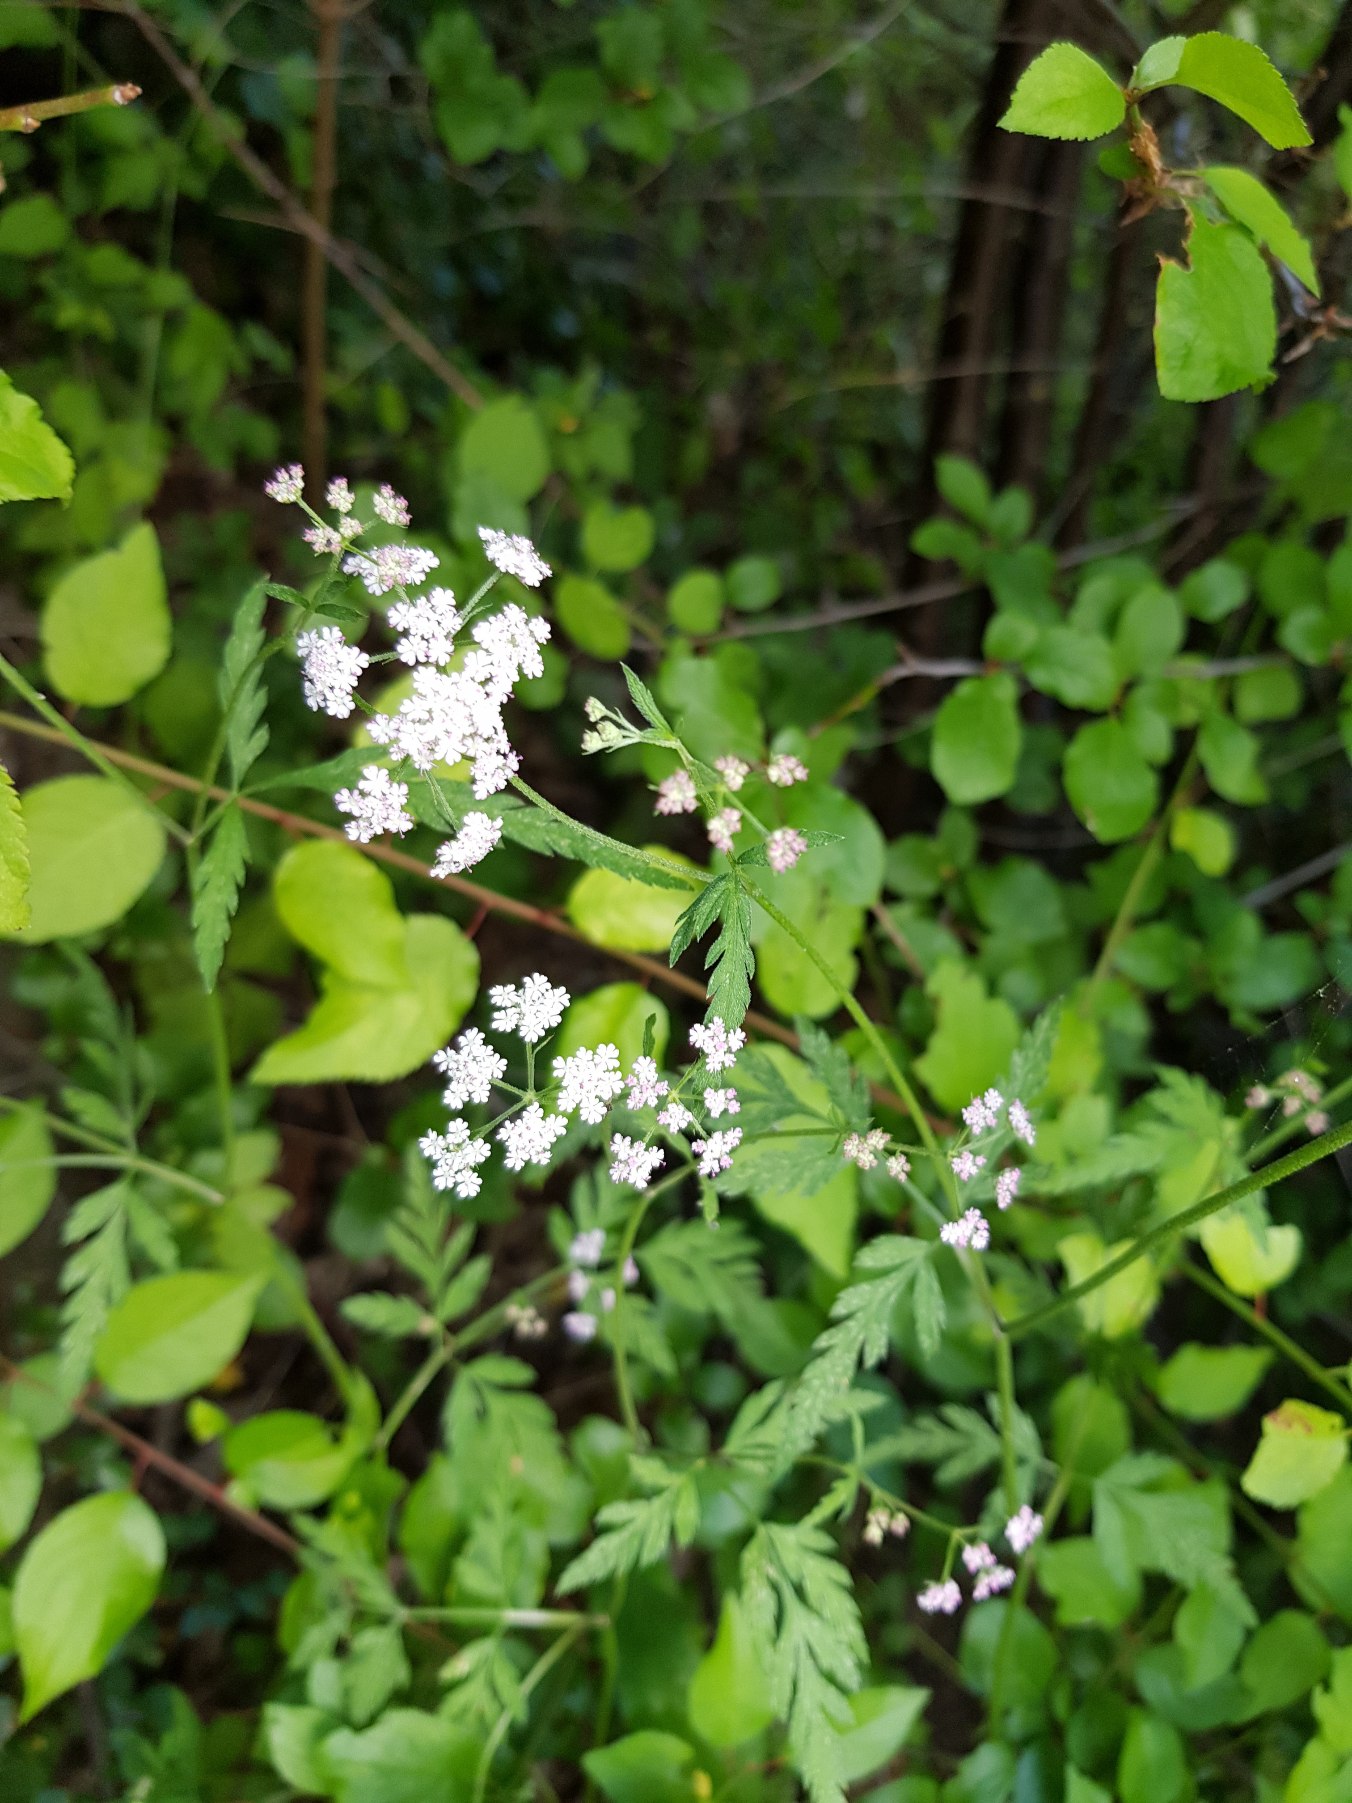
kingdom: Plantae
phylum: Tracheophyta
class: Magnoliopsida
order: Apiales
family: Apiaceae
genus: Torilis
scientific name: Torilis japonica
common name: Hvas randfrø
